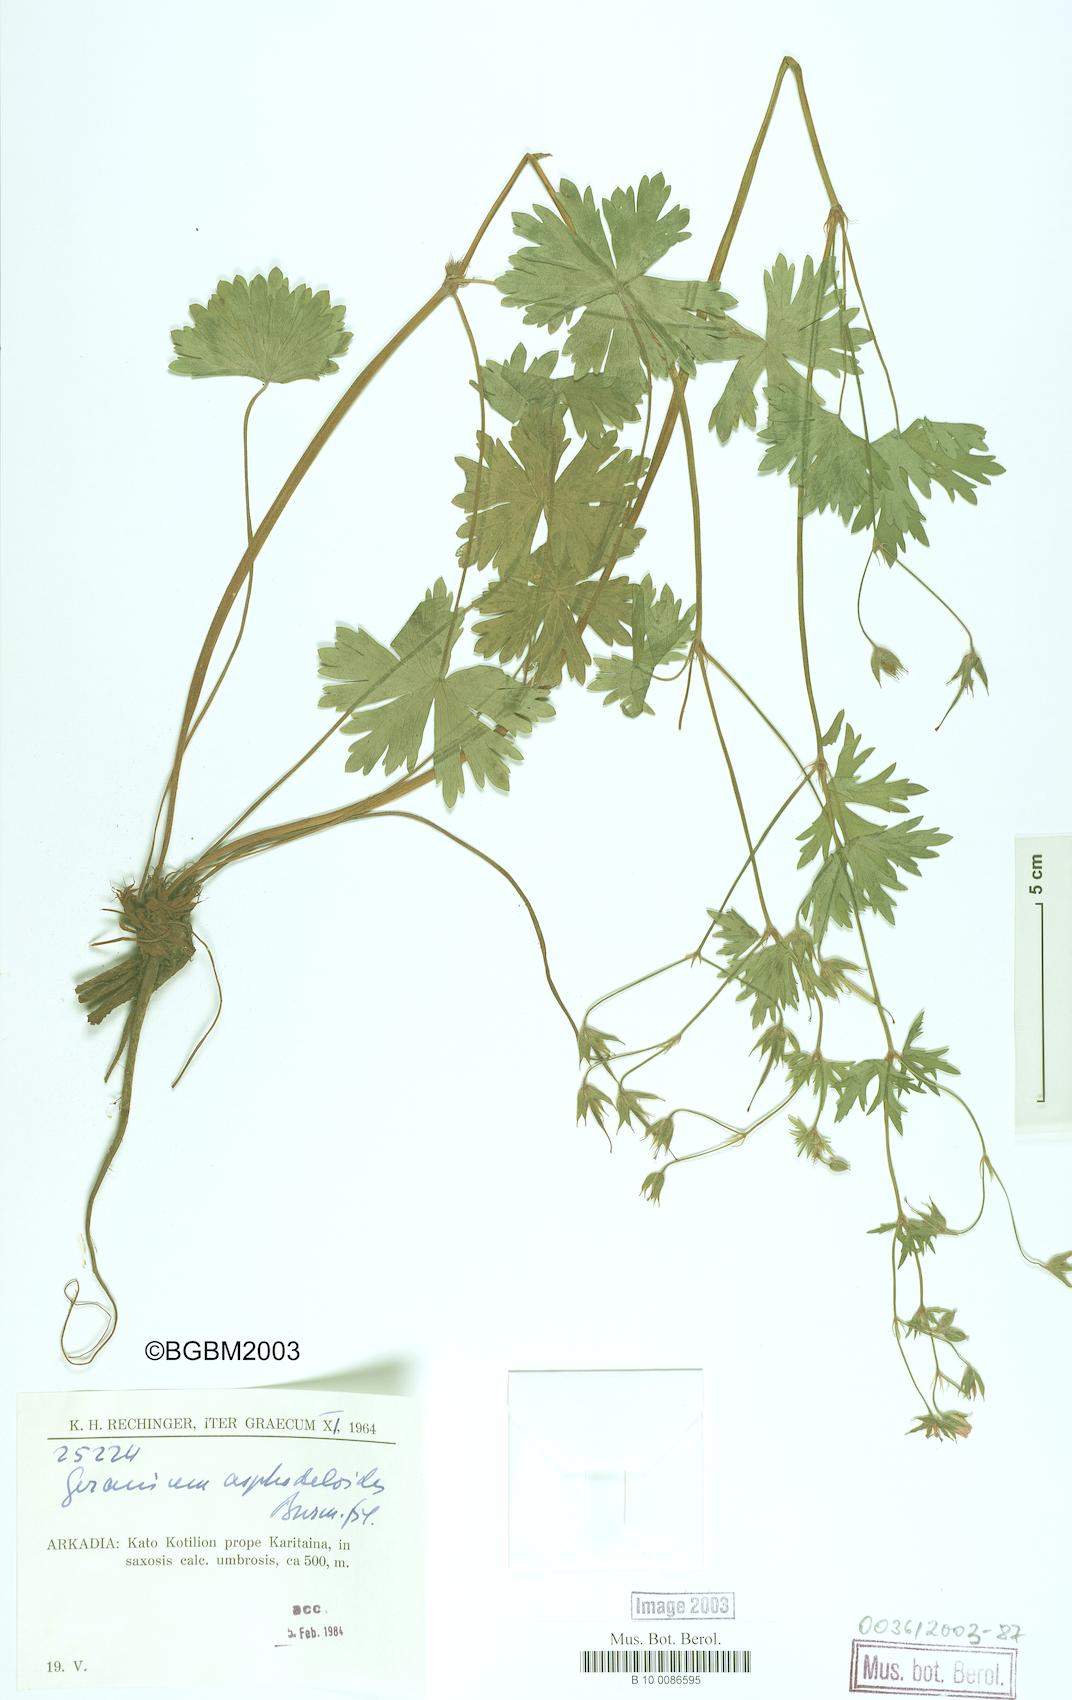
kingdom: Plantae
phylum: Tracheophyta
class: Magnoliopsida
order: Geraniales
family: Geraniaceae
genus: Geranium
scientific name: Geranium asphodeloides
